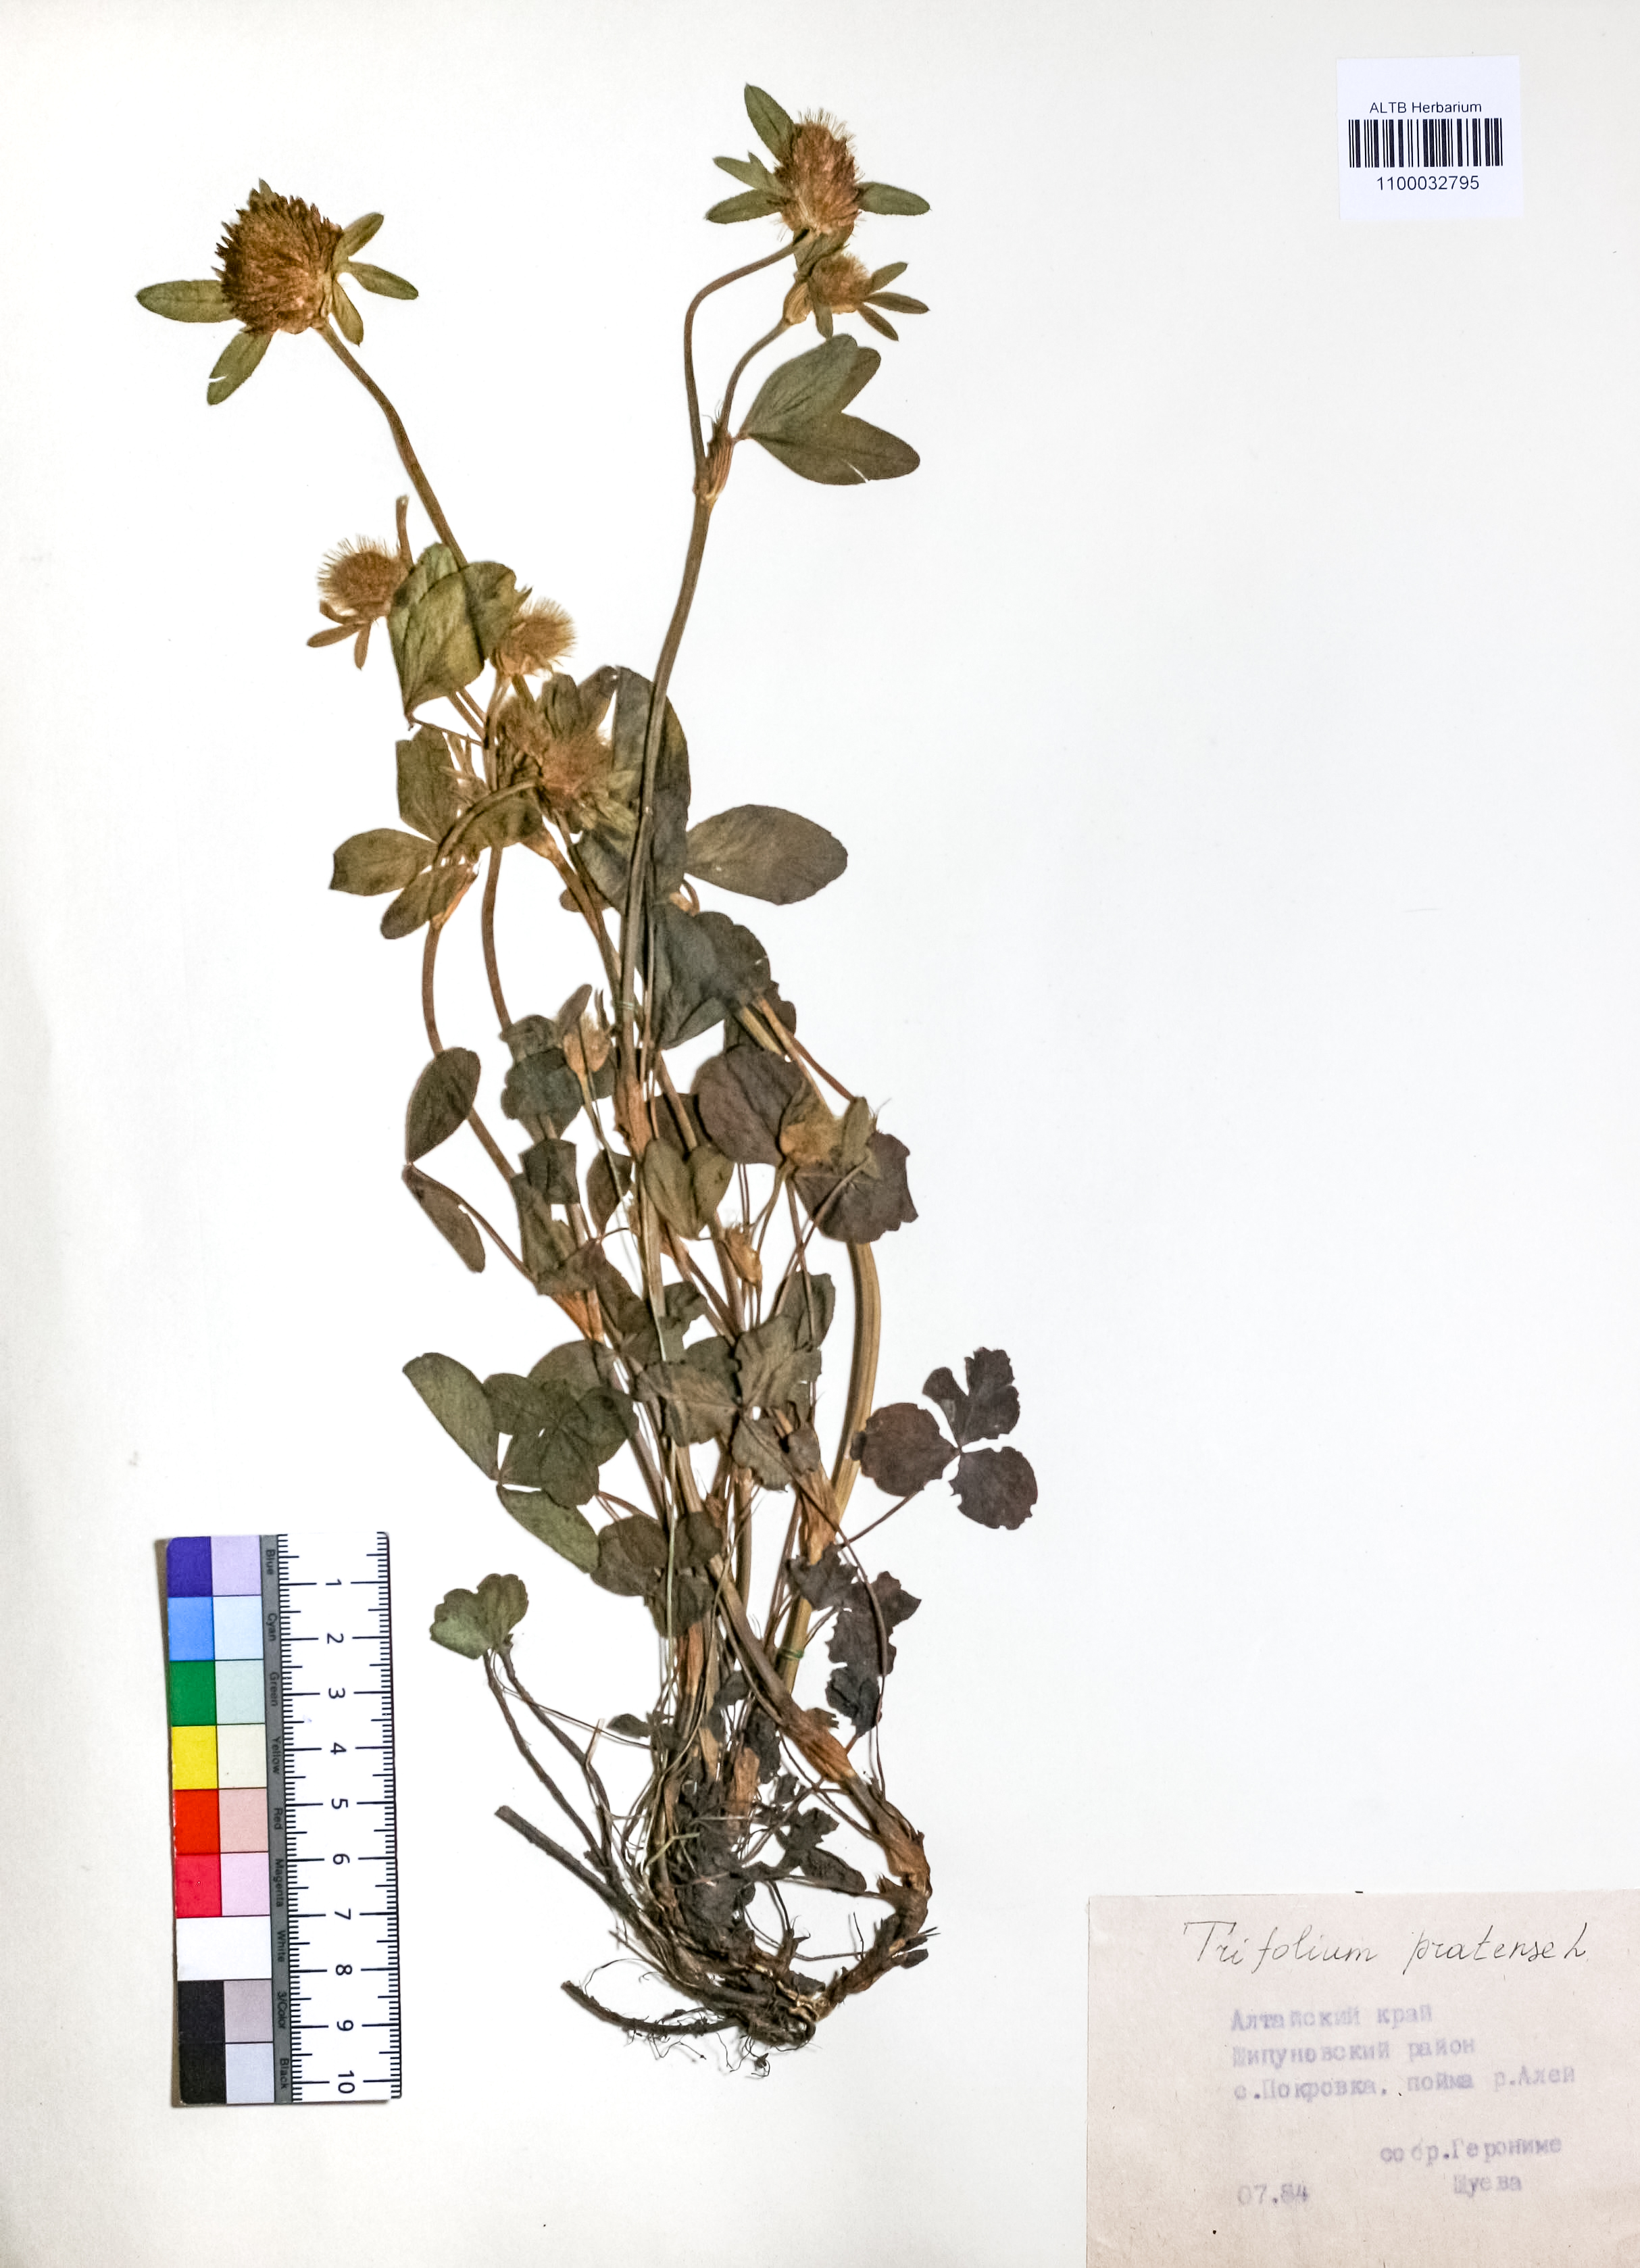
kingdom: Plantae
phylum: Tracheophyta
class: Magnoliopsida
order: Fabales
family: Fabaceae
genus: Trifolium
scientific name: Trifolium pratense
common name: Red clover
